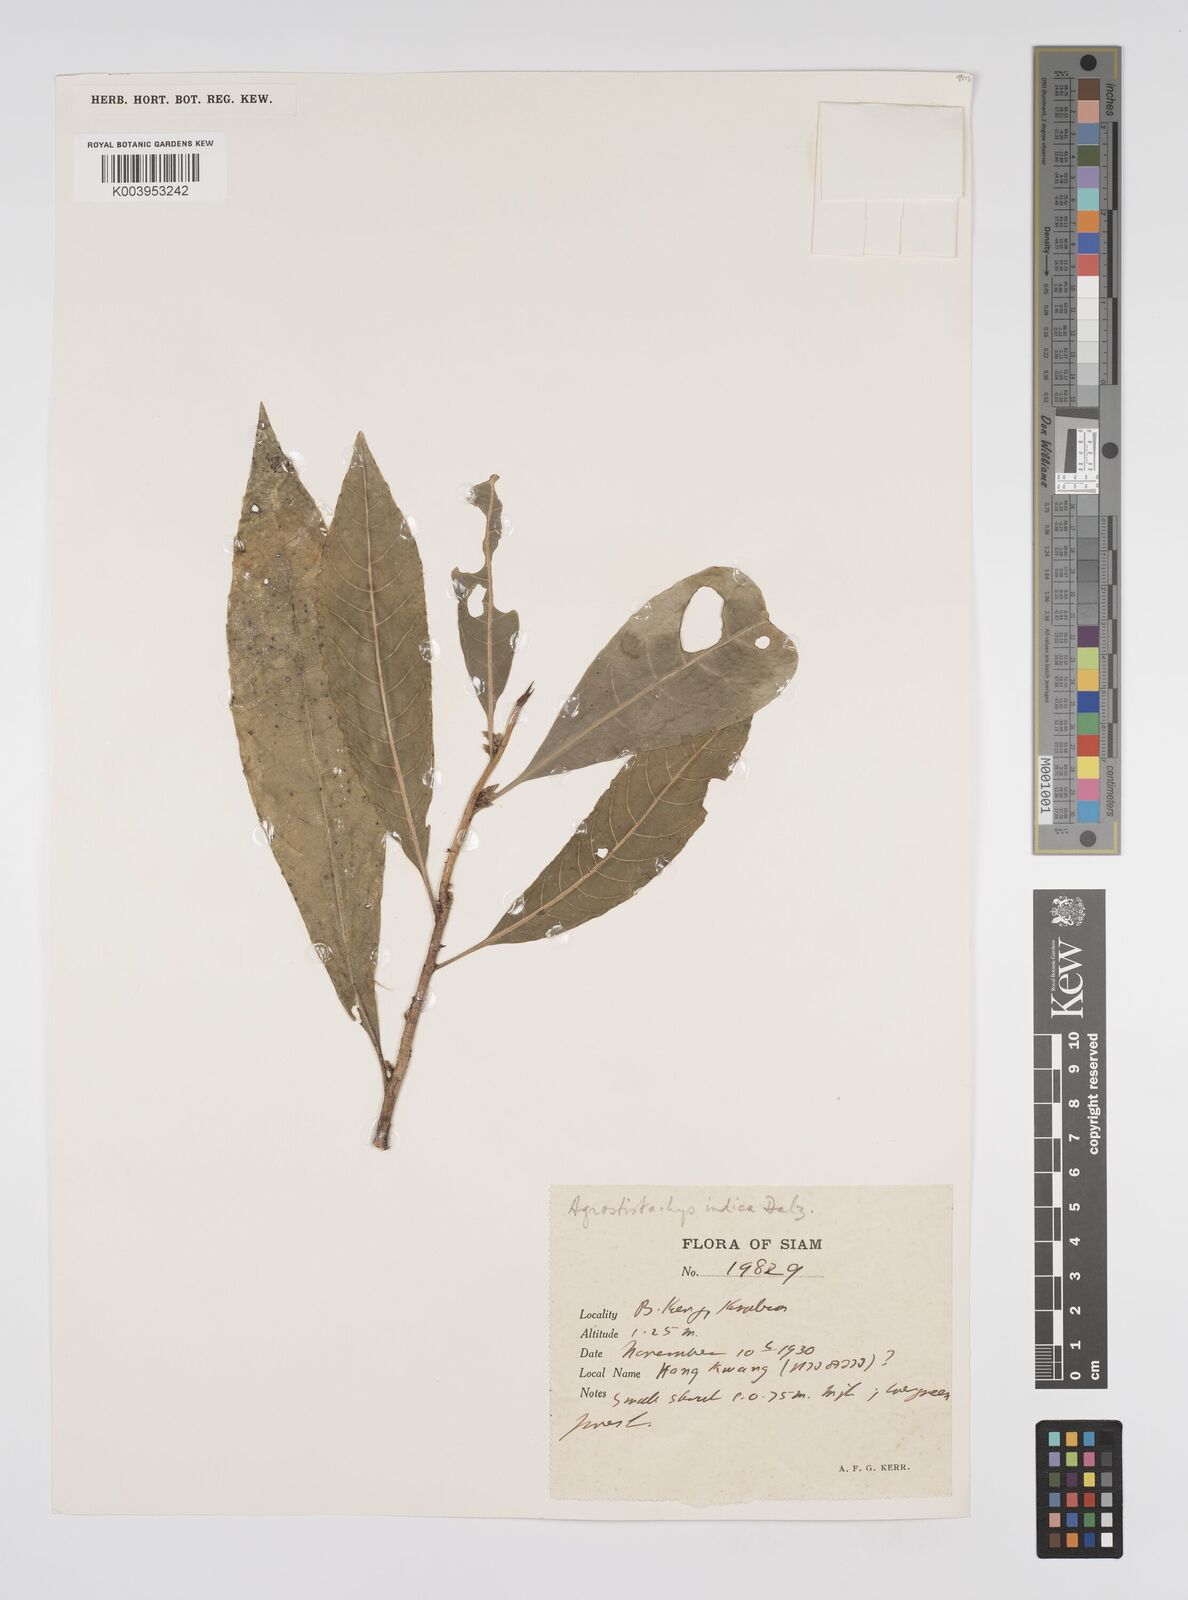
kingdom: Plantae
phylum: Tracheophyta
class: Magnoliopsida
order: Malpighiales
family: Euphorbiaceae
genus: Agrostistachys
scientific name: Agrostistachys indica
